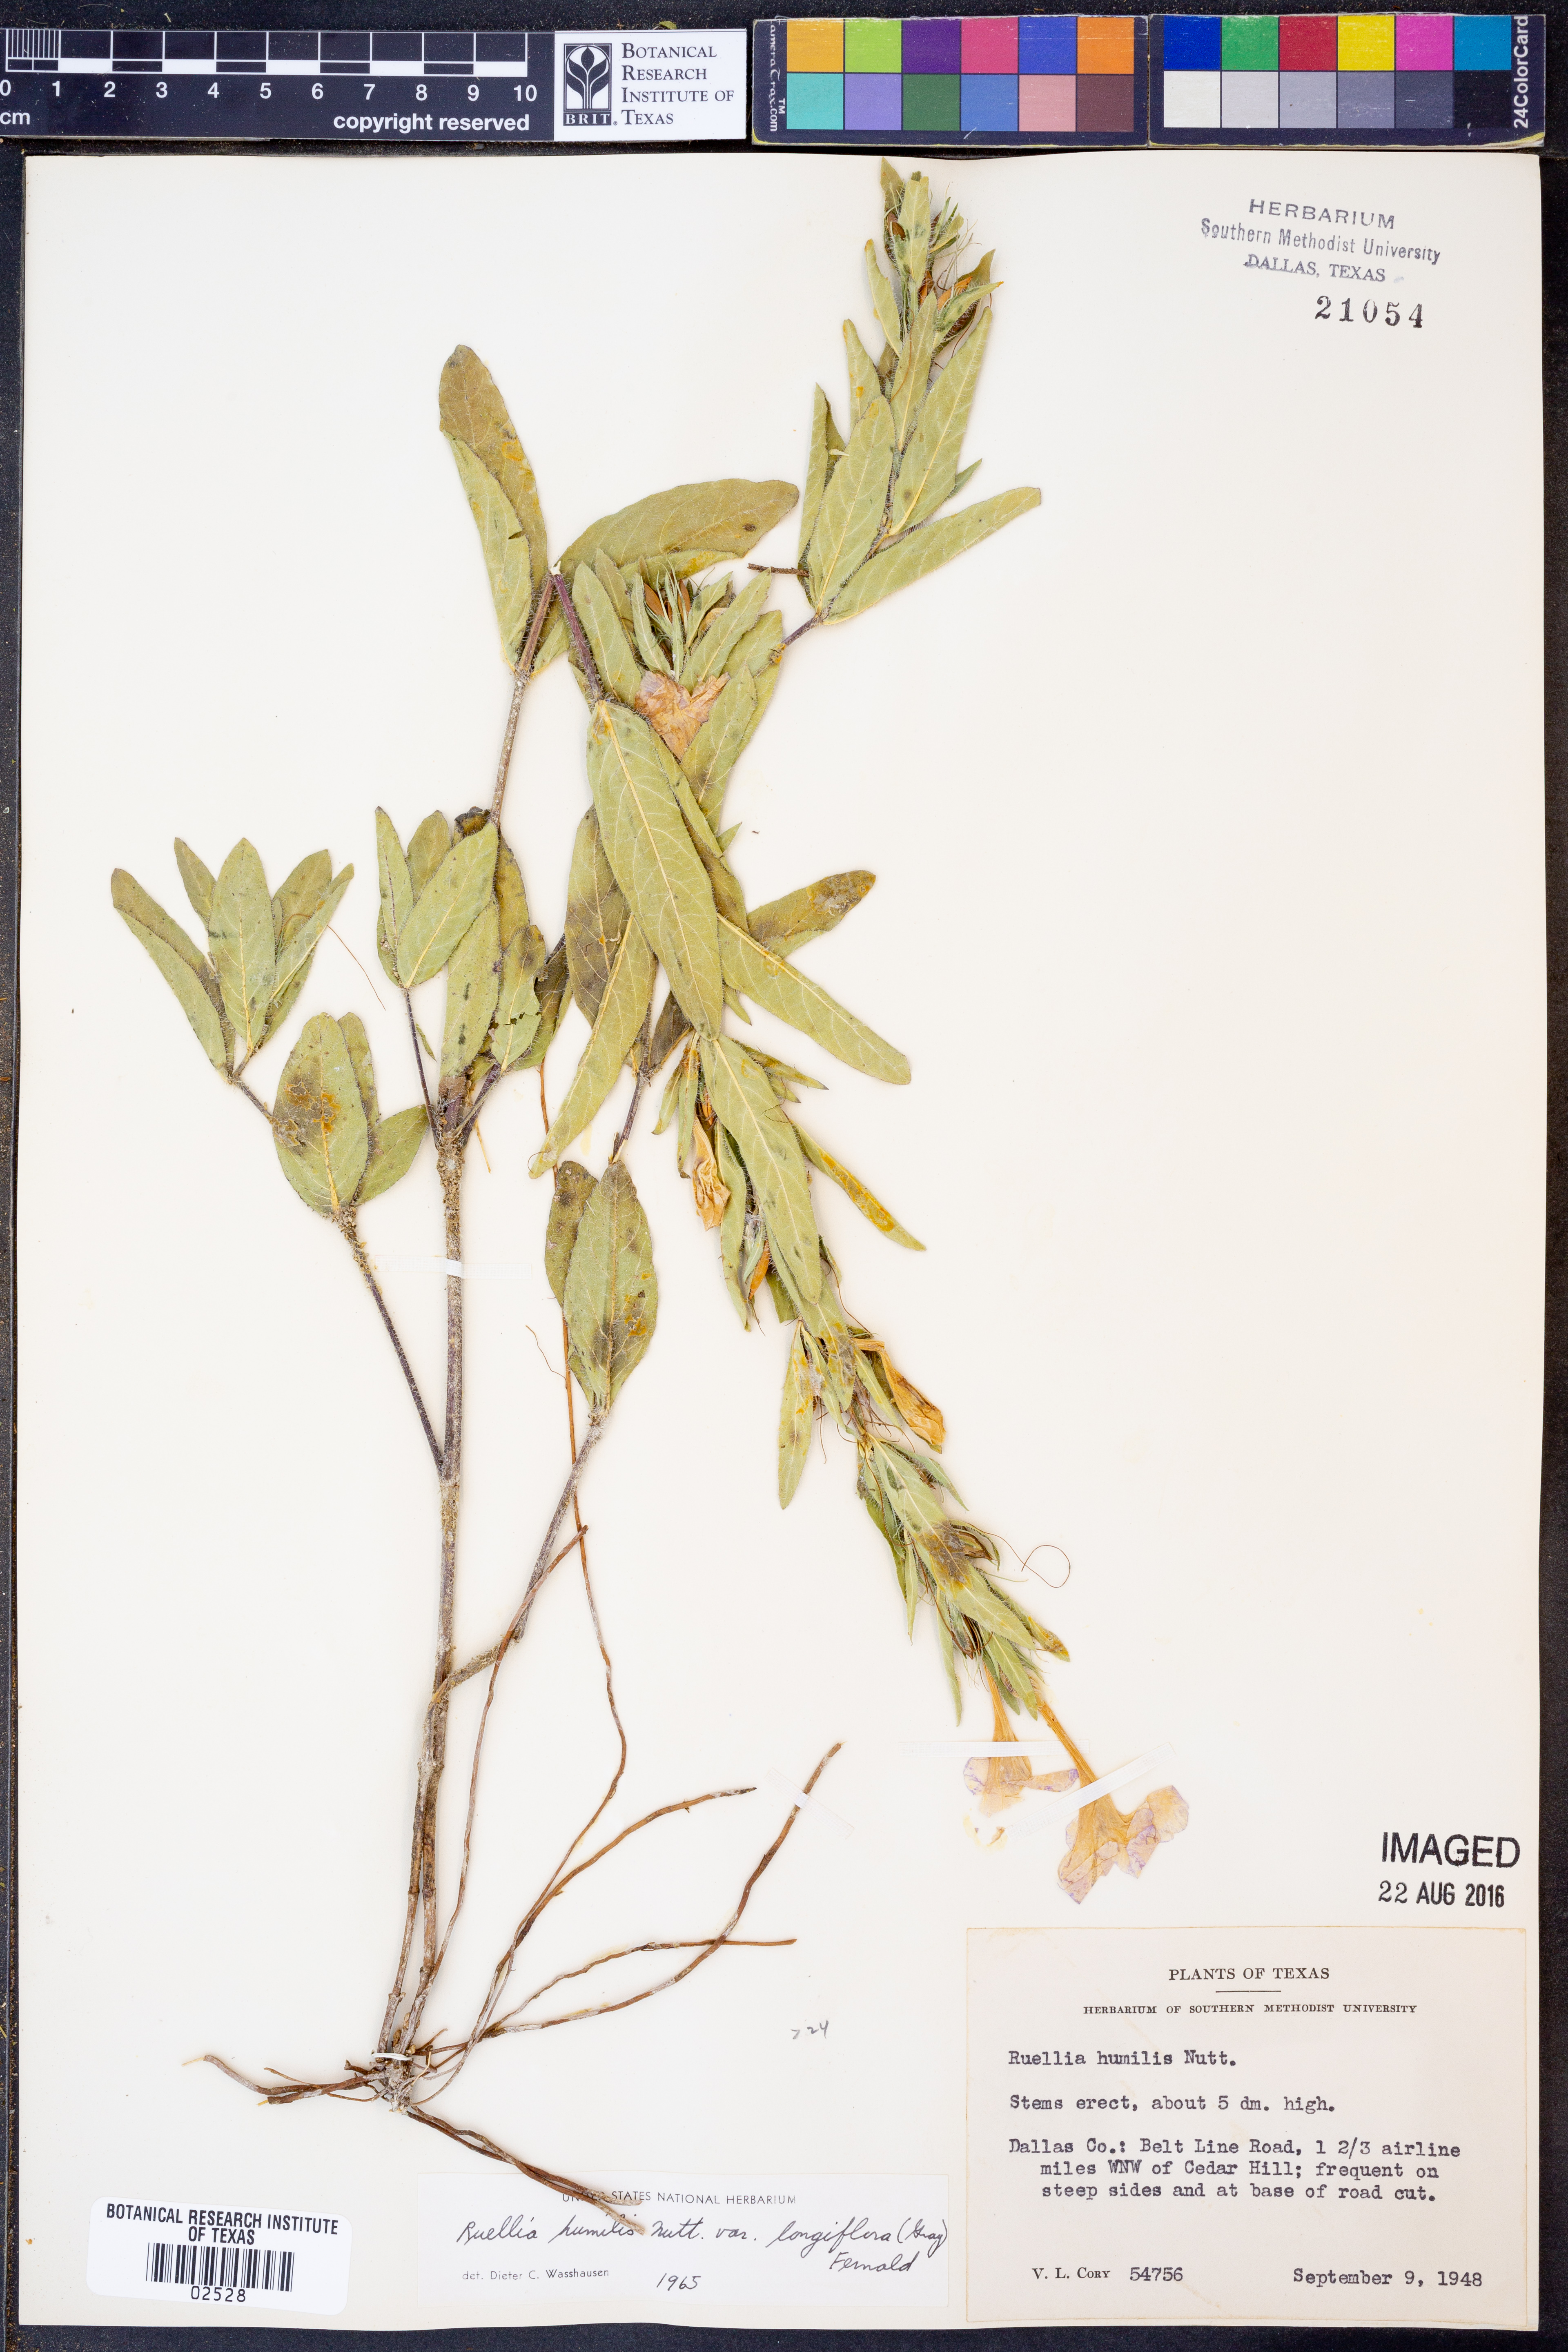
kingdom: Plantae
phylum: Tracheophyta
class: Magnoliopsida
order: Lamiales
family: Acanthaceae
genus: Ruellia
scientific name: Ruellia humilis
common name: Fringe-leaf ruellia
